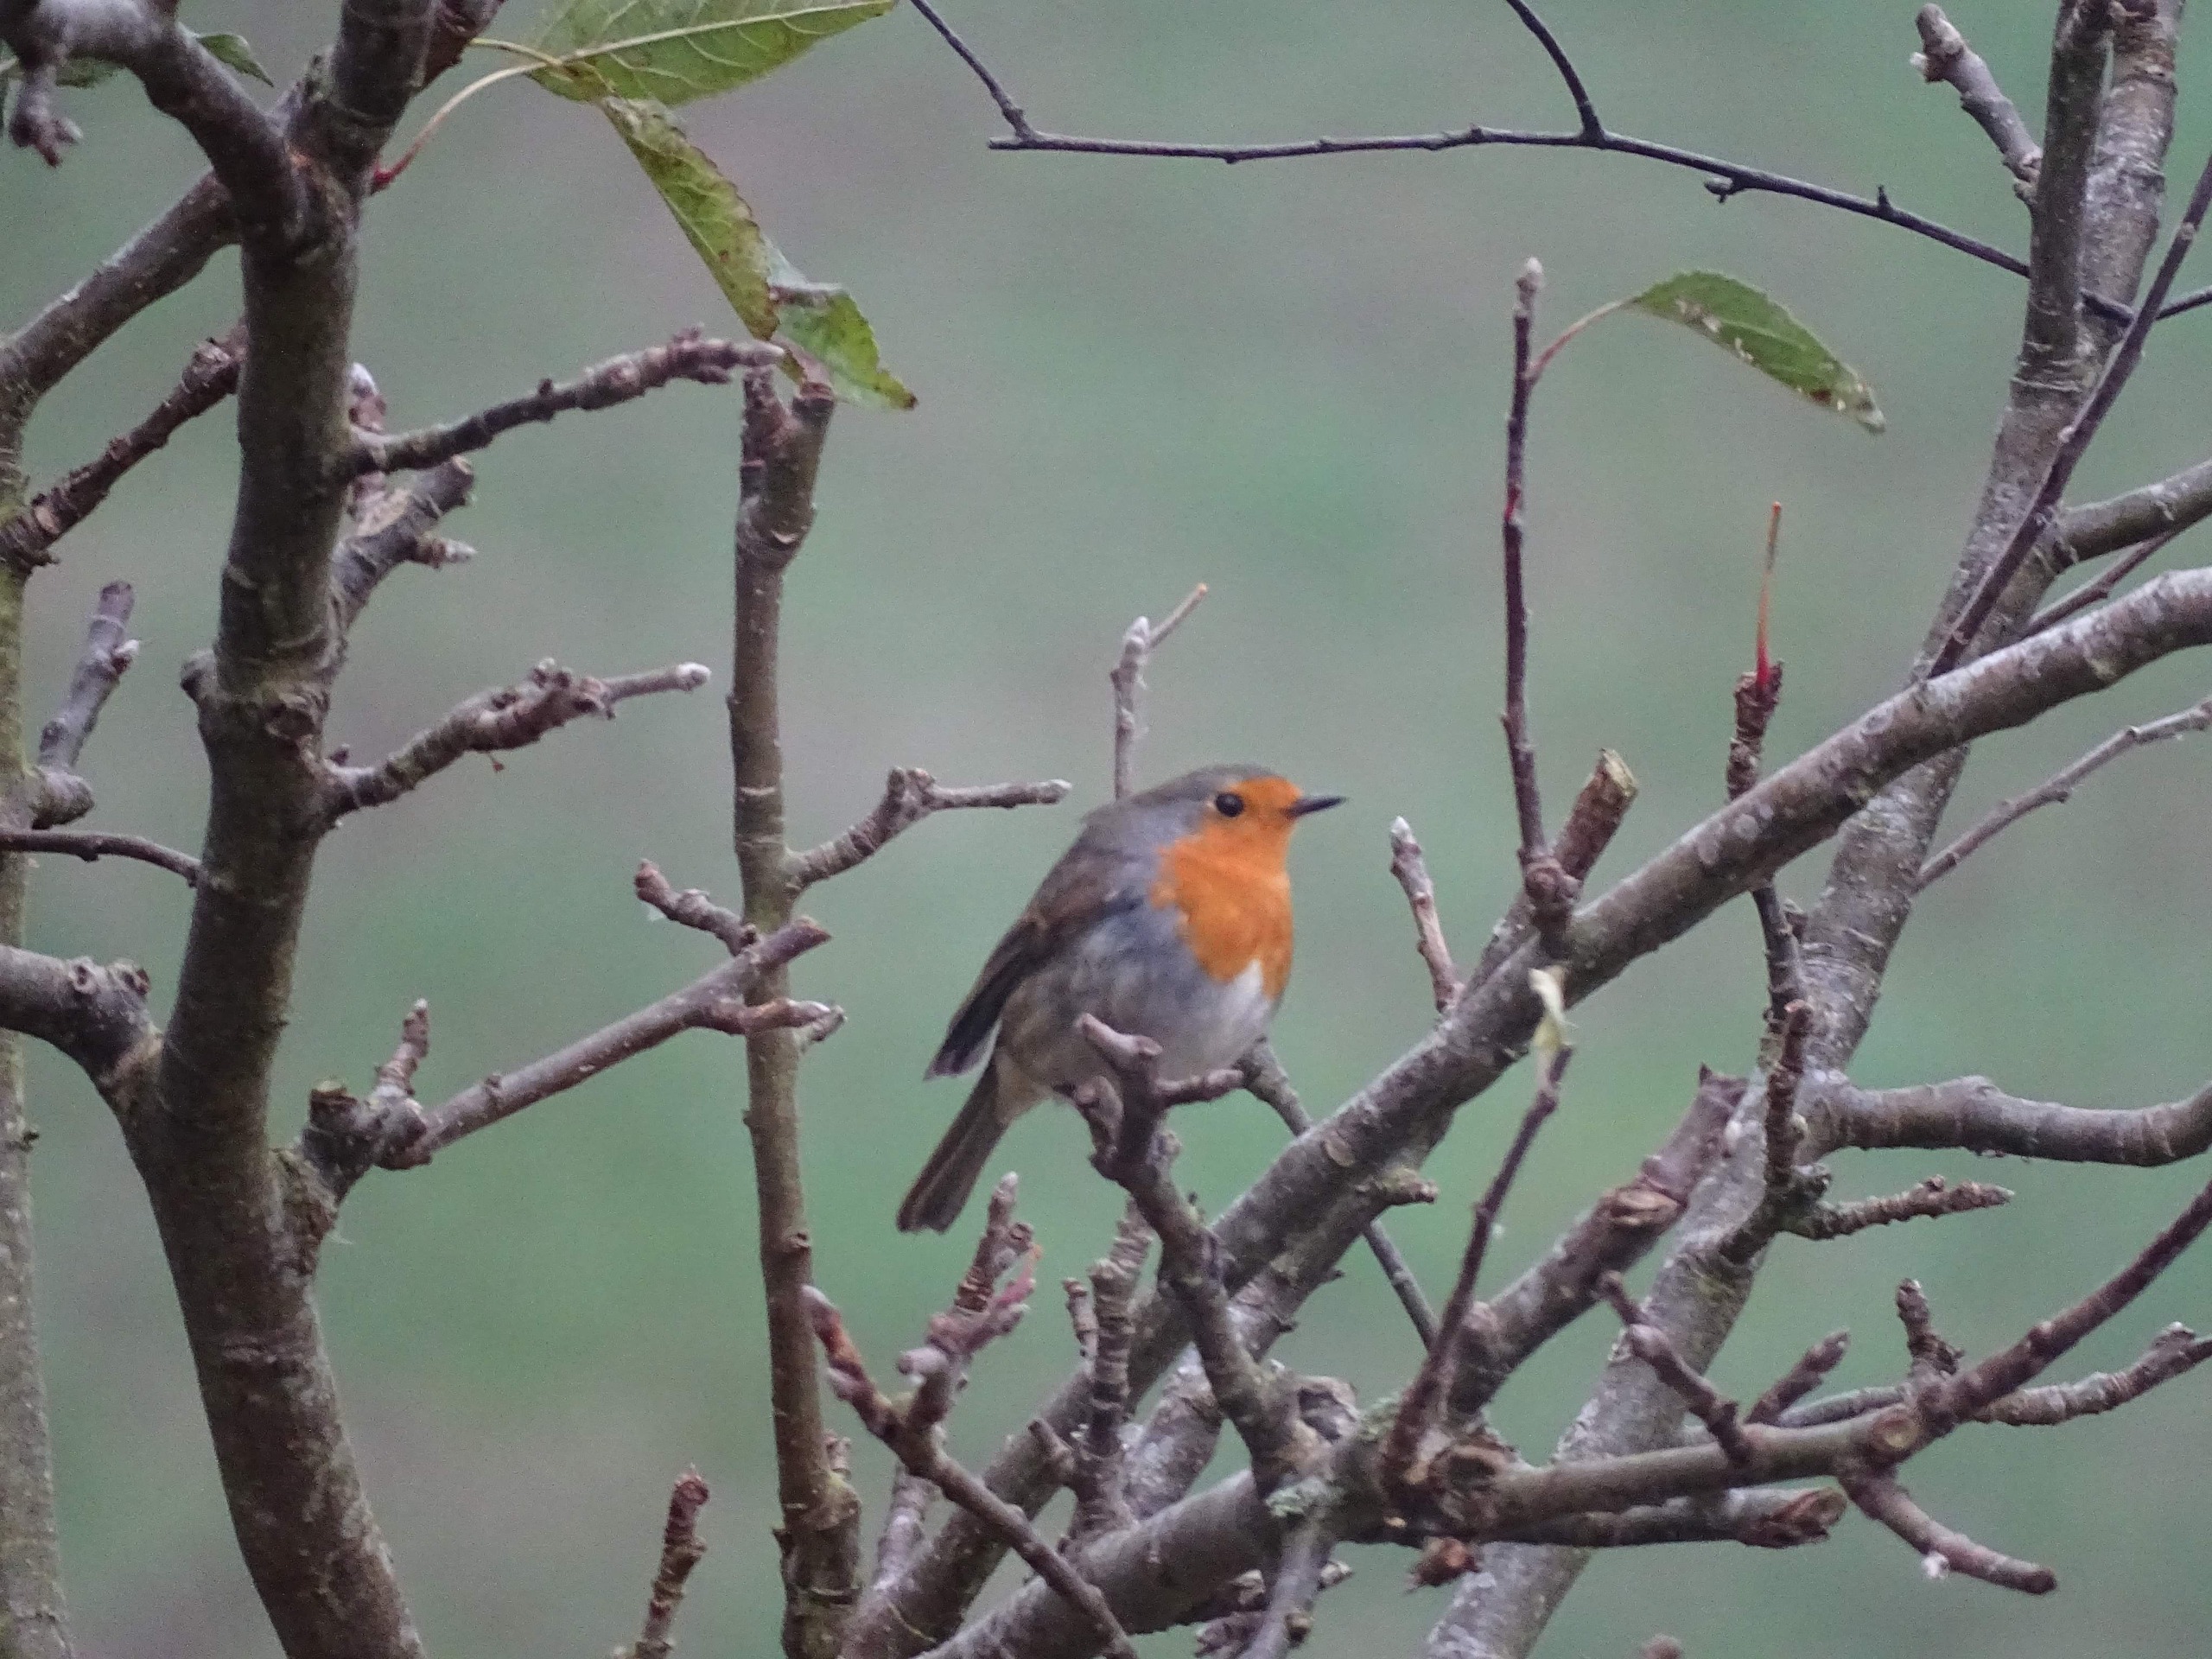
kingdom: Animalia
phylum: Chordata
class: Aves
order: Passeriformes
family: Muscicapidae
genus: Erithacus
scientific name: Erithacus rubecula
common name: Rødhals/rødkælk
